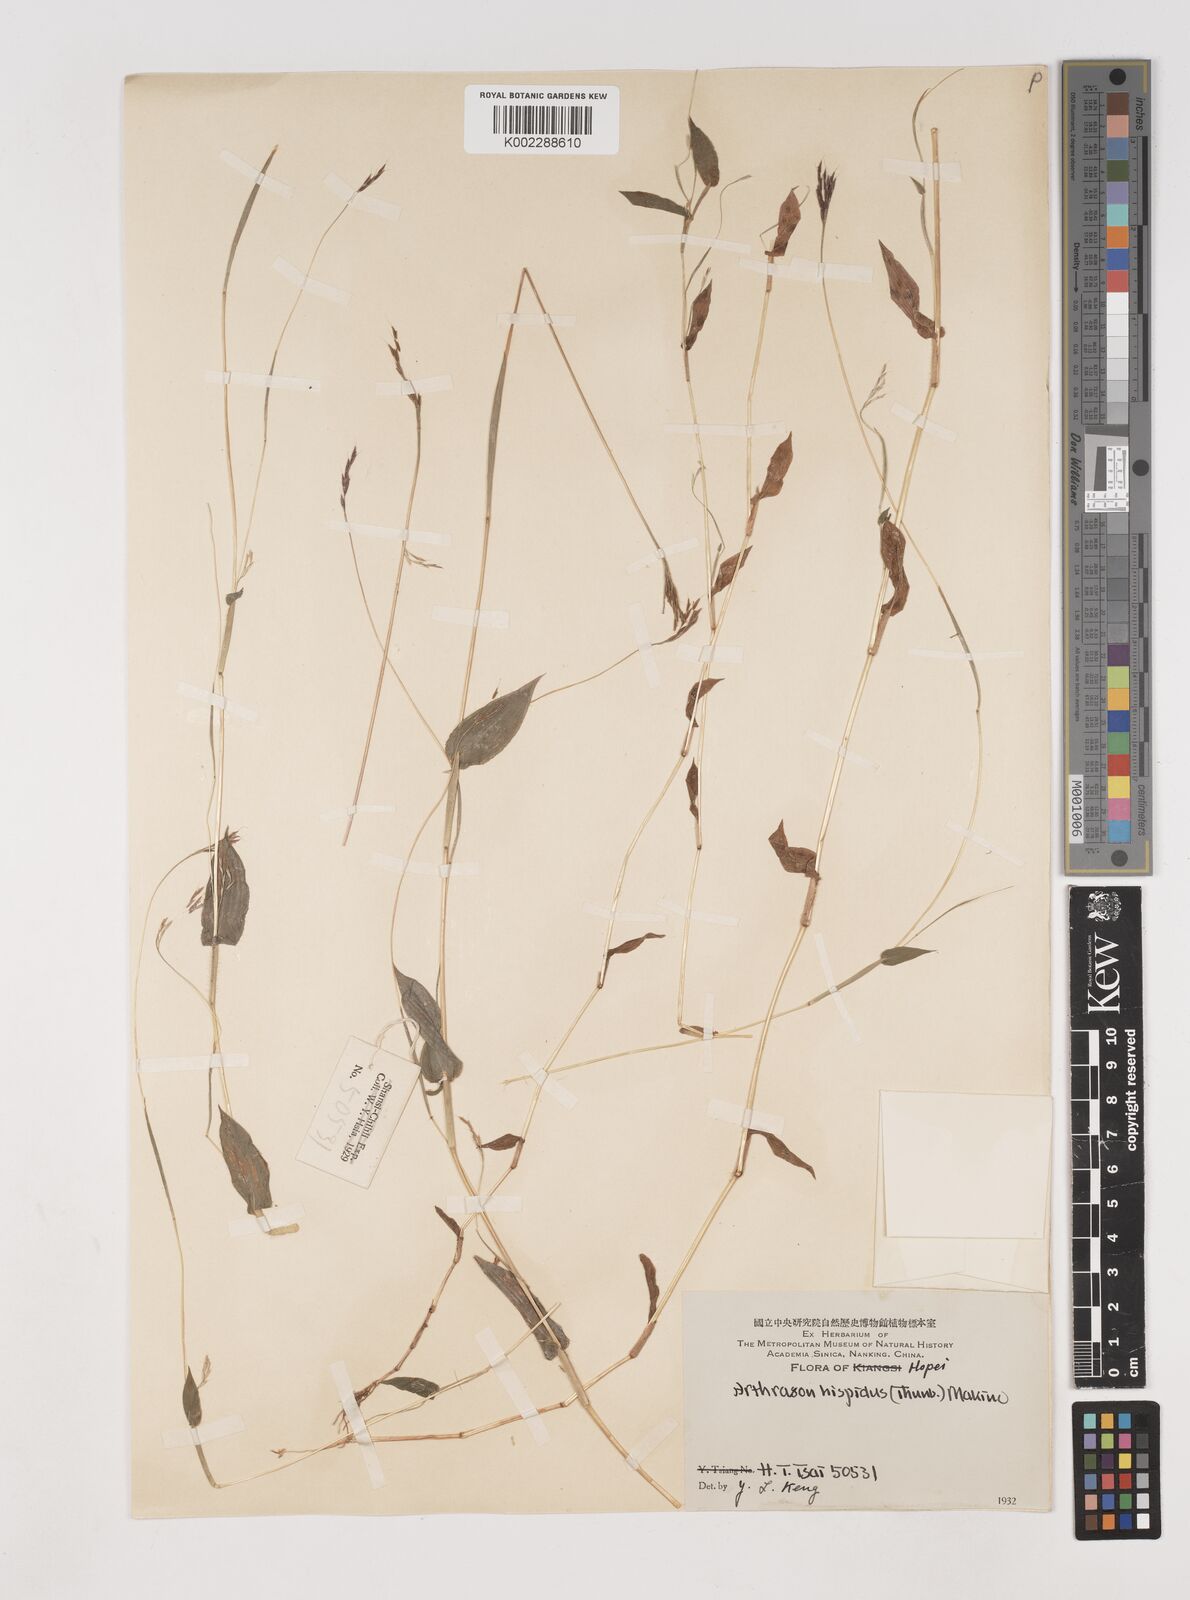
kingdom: Plantae
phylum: Tracheophyta
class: Liliopsida
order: Poales
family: Poaceae
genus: Arthraxon
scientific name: Arthraxon hispidus
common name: Small carpgrass
